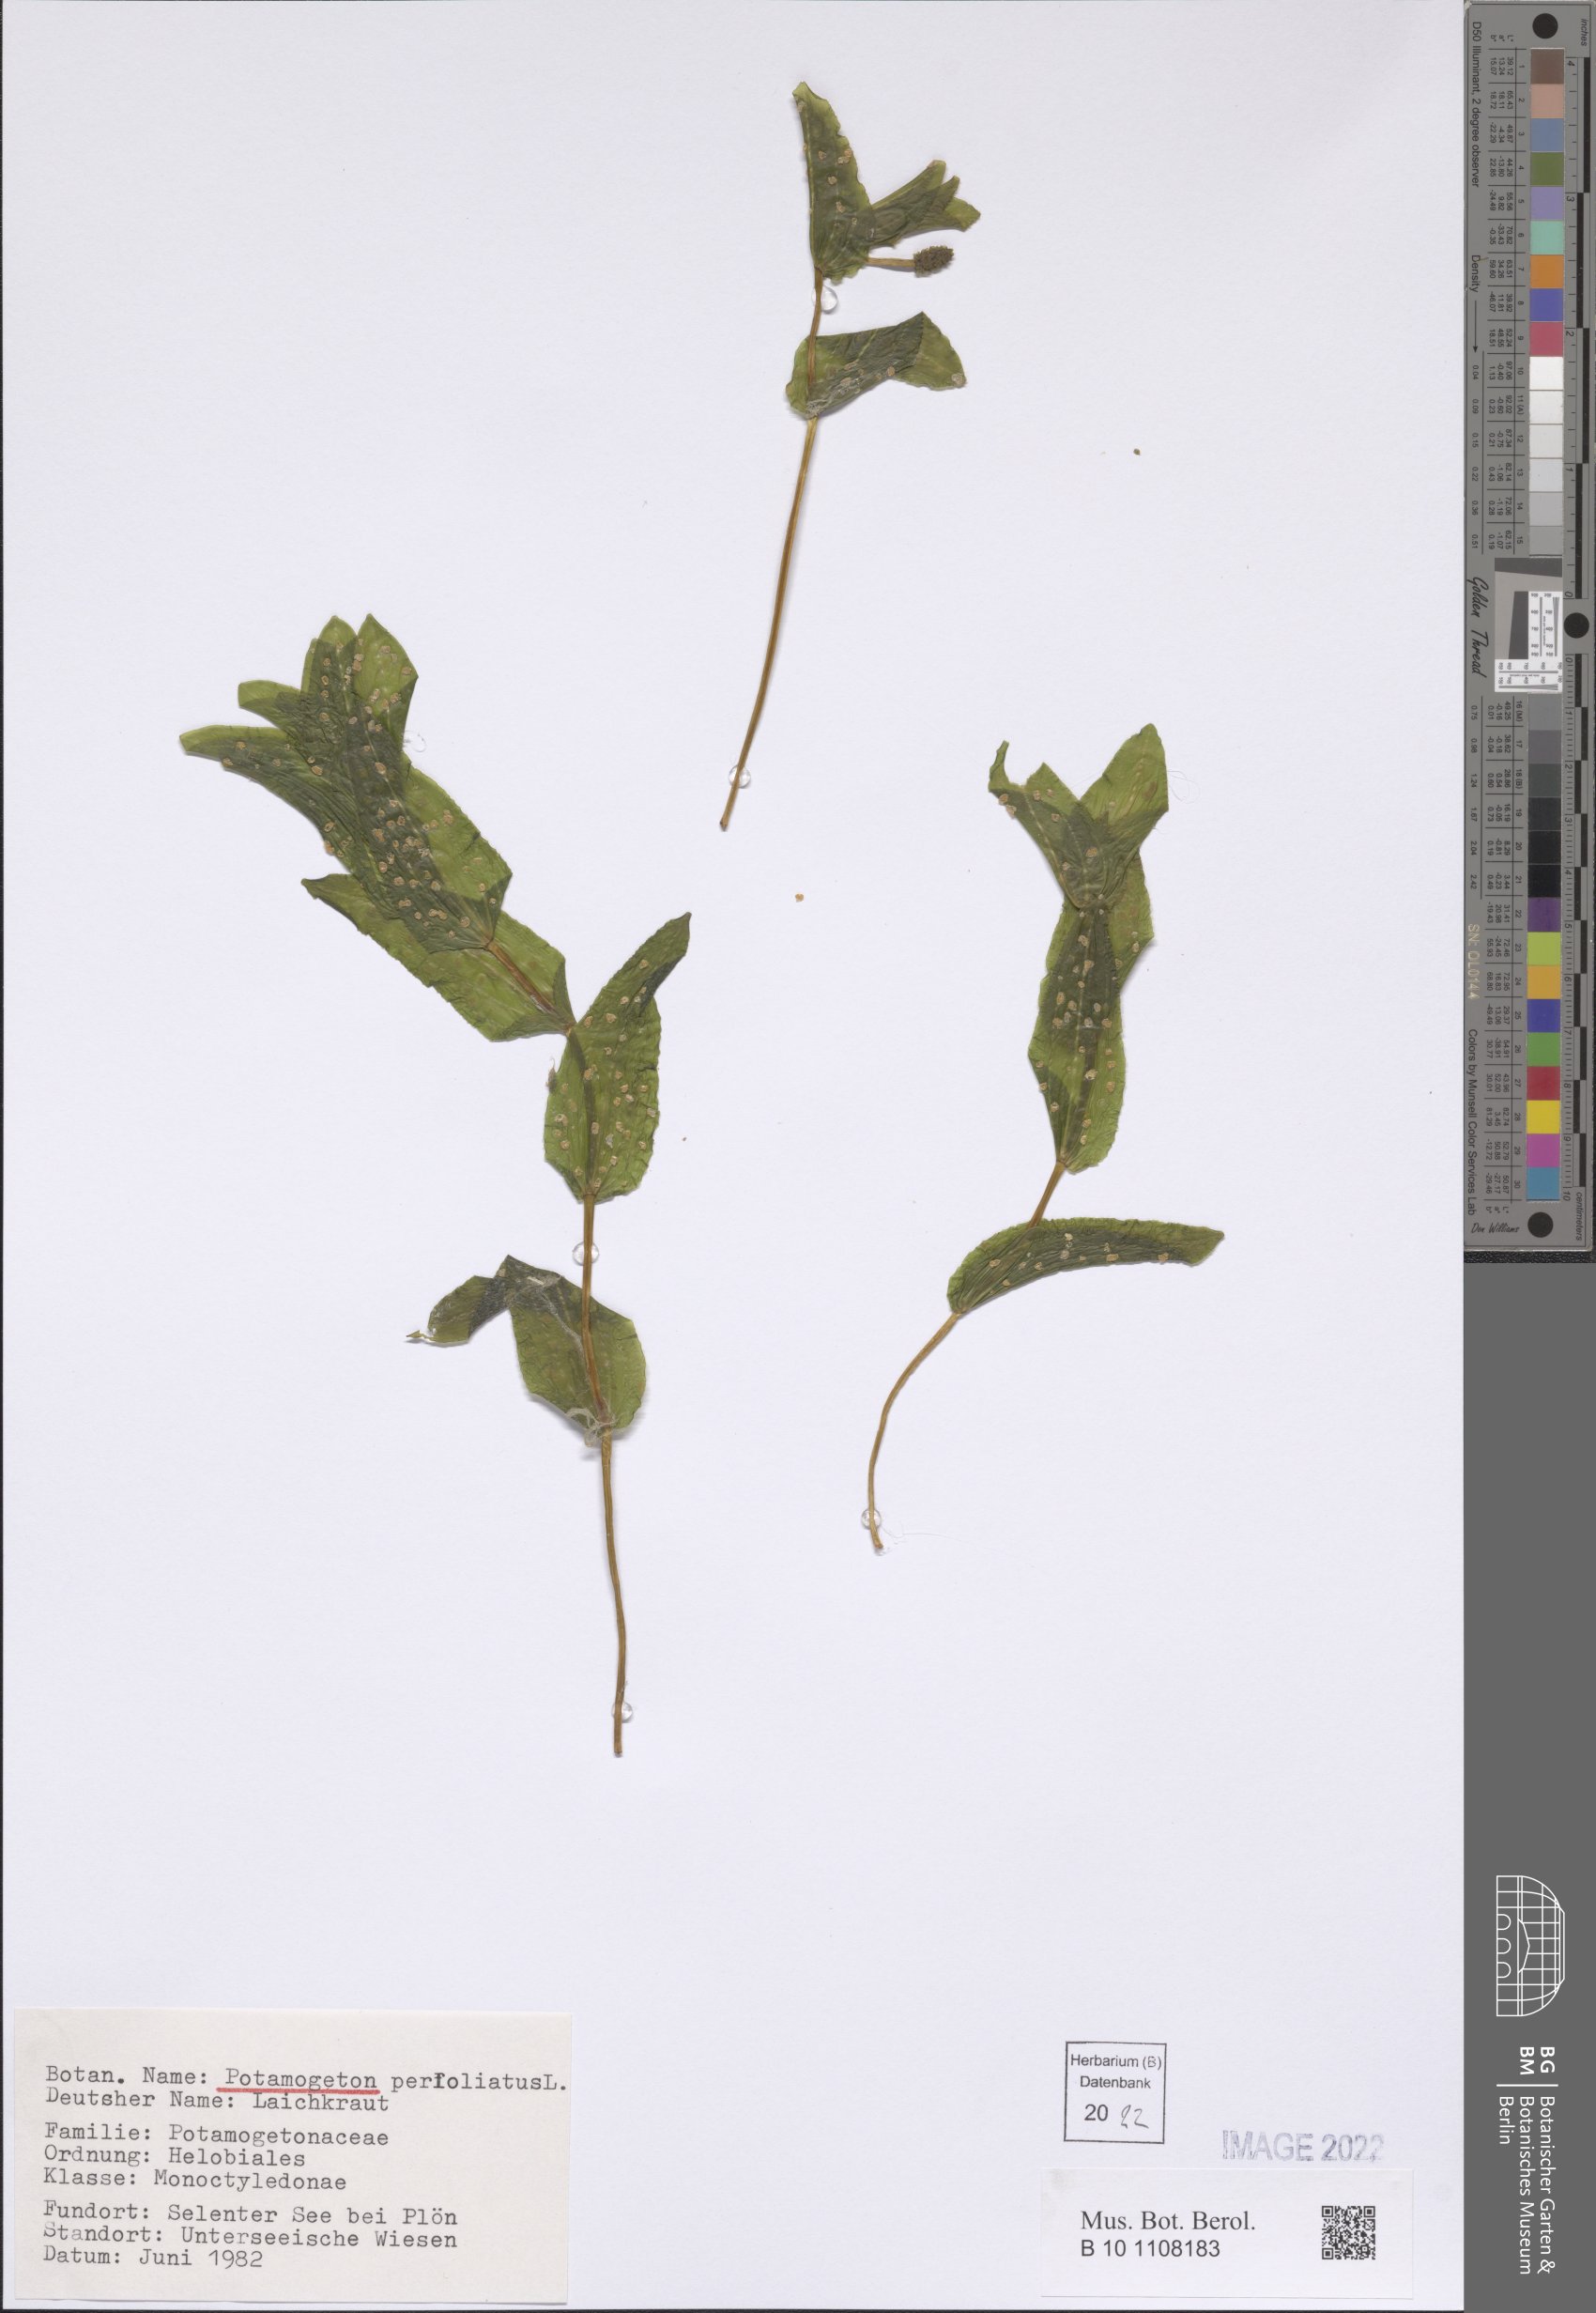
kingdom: Plantae
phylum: Tracheophyta
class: Liliopsida
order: Alismatales
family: Potamogetonaceae
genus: Potamogeton
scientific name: Potamogeton perfoliatus
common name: Perfoliate pondweed
